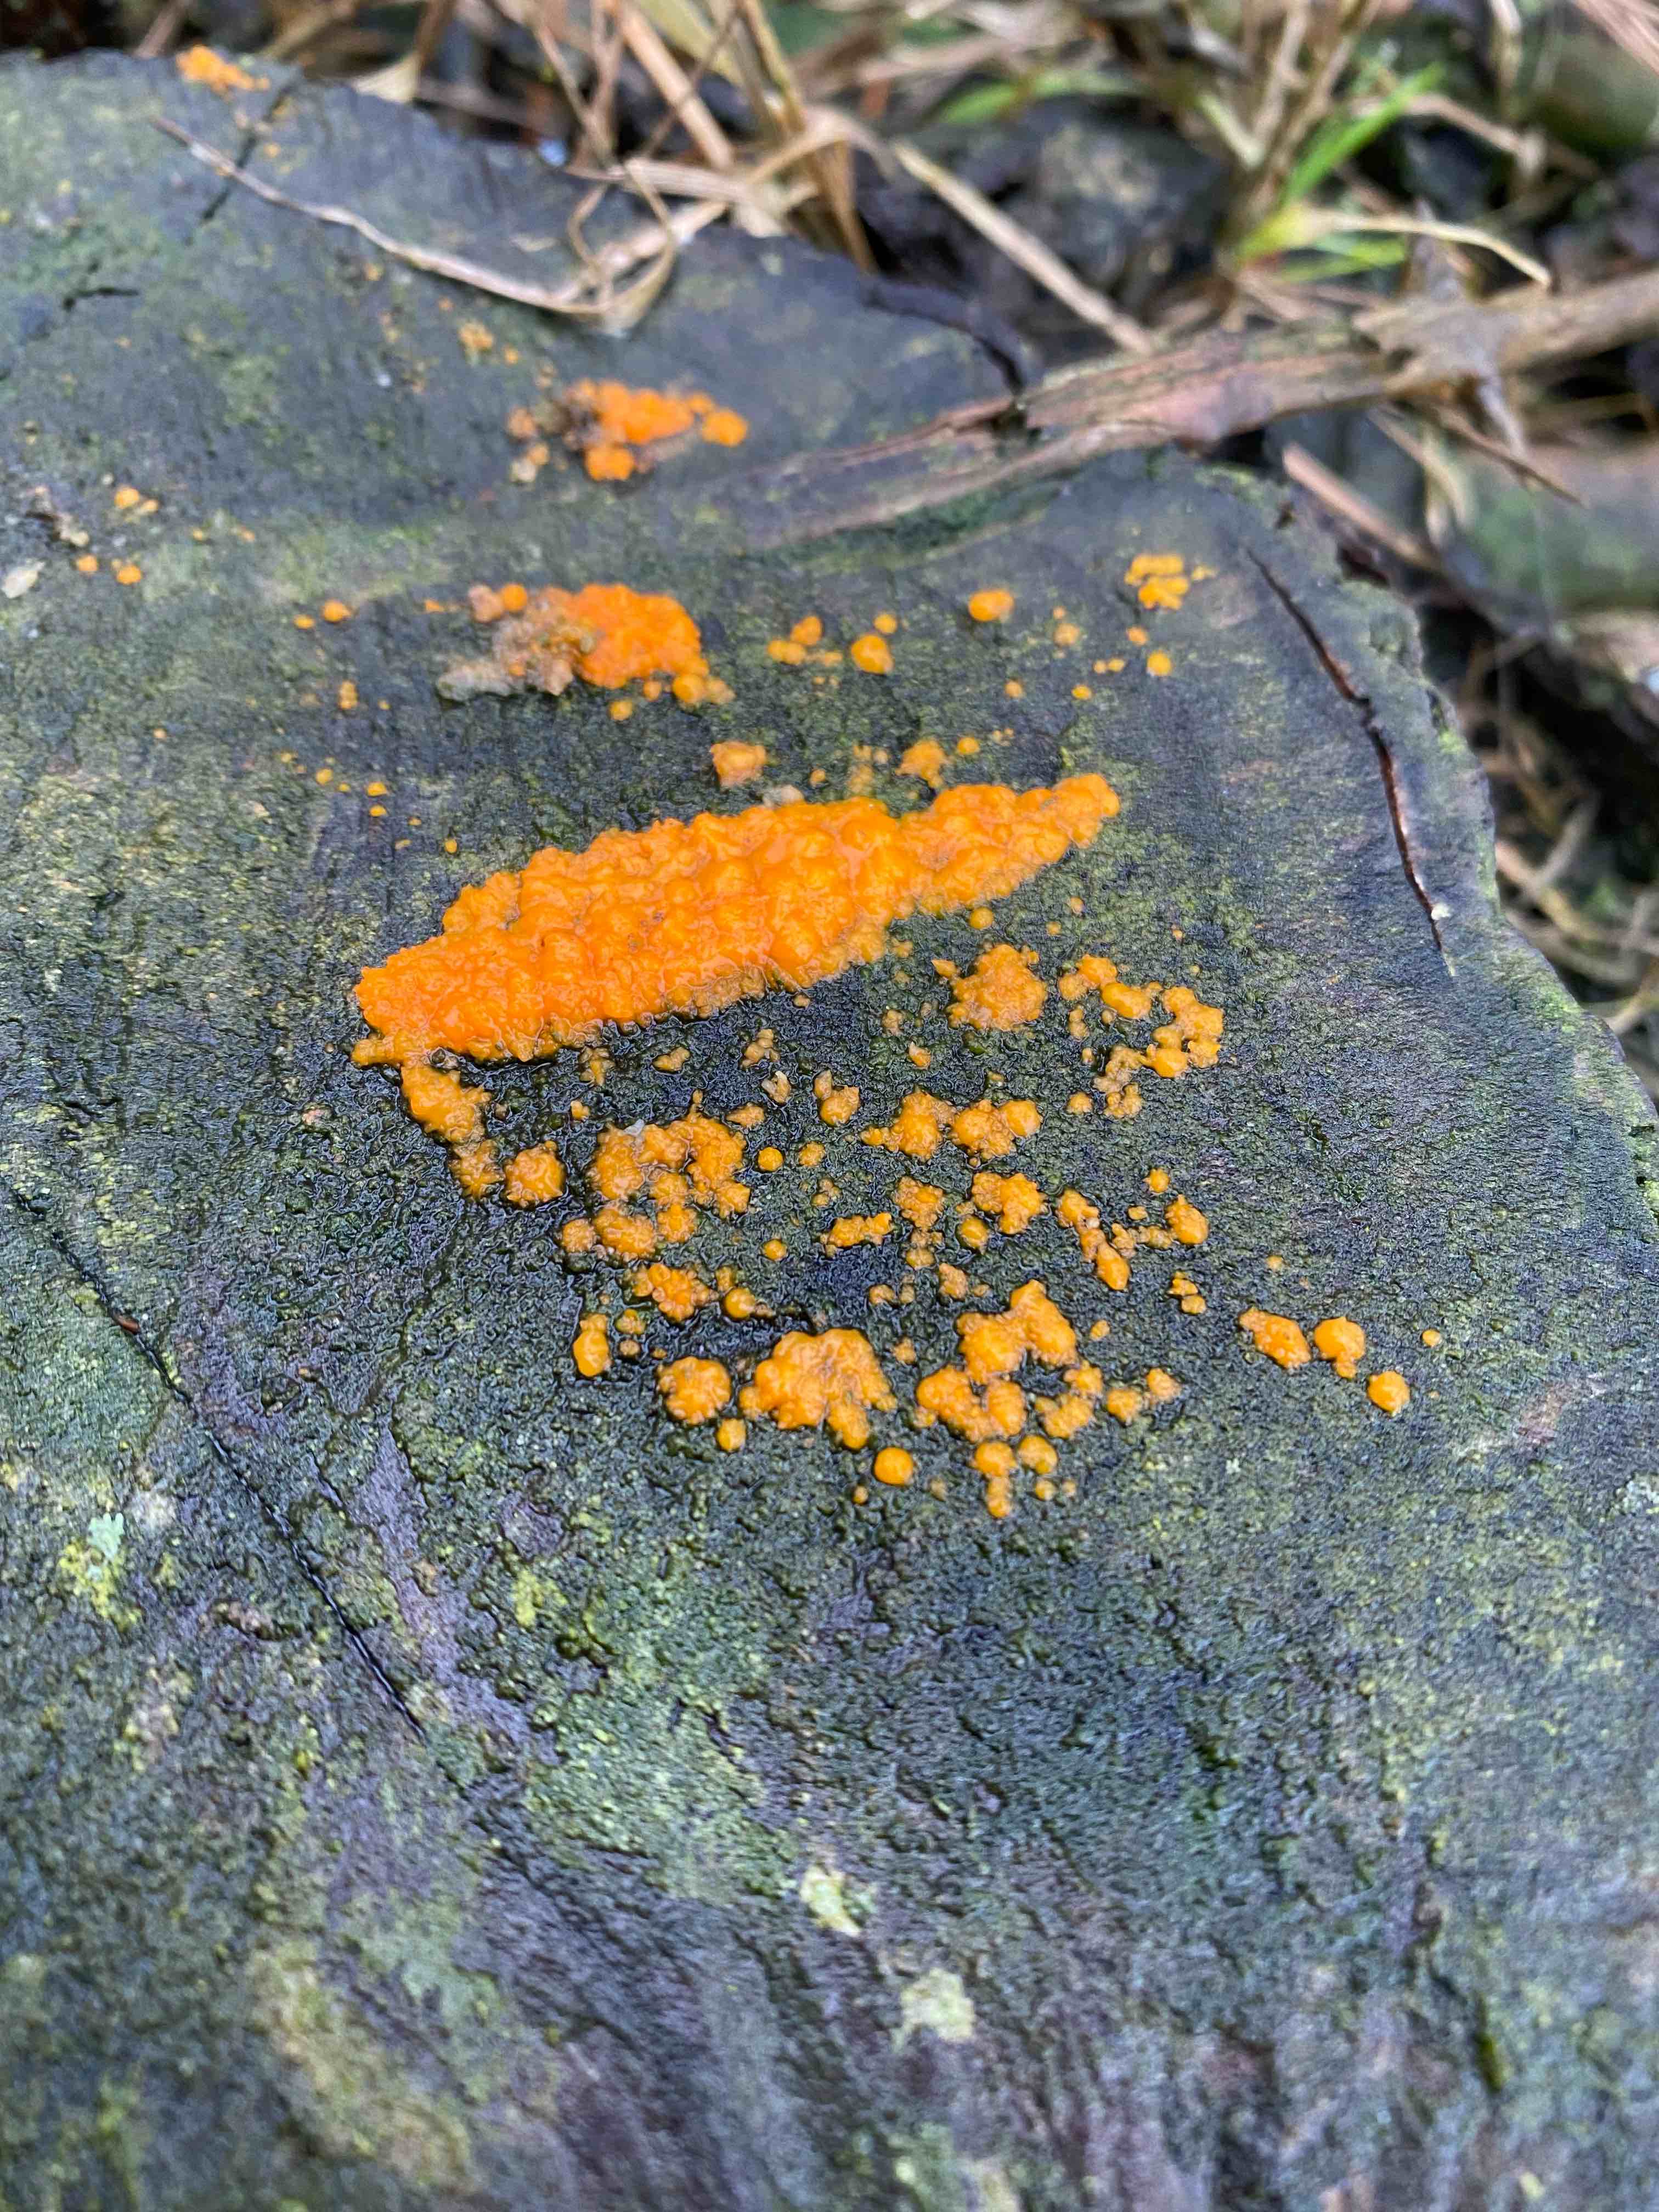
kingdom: Fungi
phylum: Basidiomycota
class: Dacrymycetes
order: Dacrymycetales
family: Dacrymycetaceae
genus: Dacrymyces
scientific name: Dacrymyces stillatus
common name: almindelig tåresvamp
